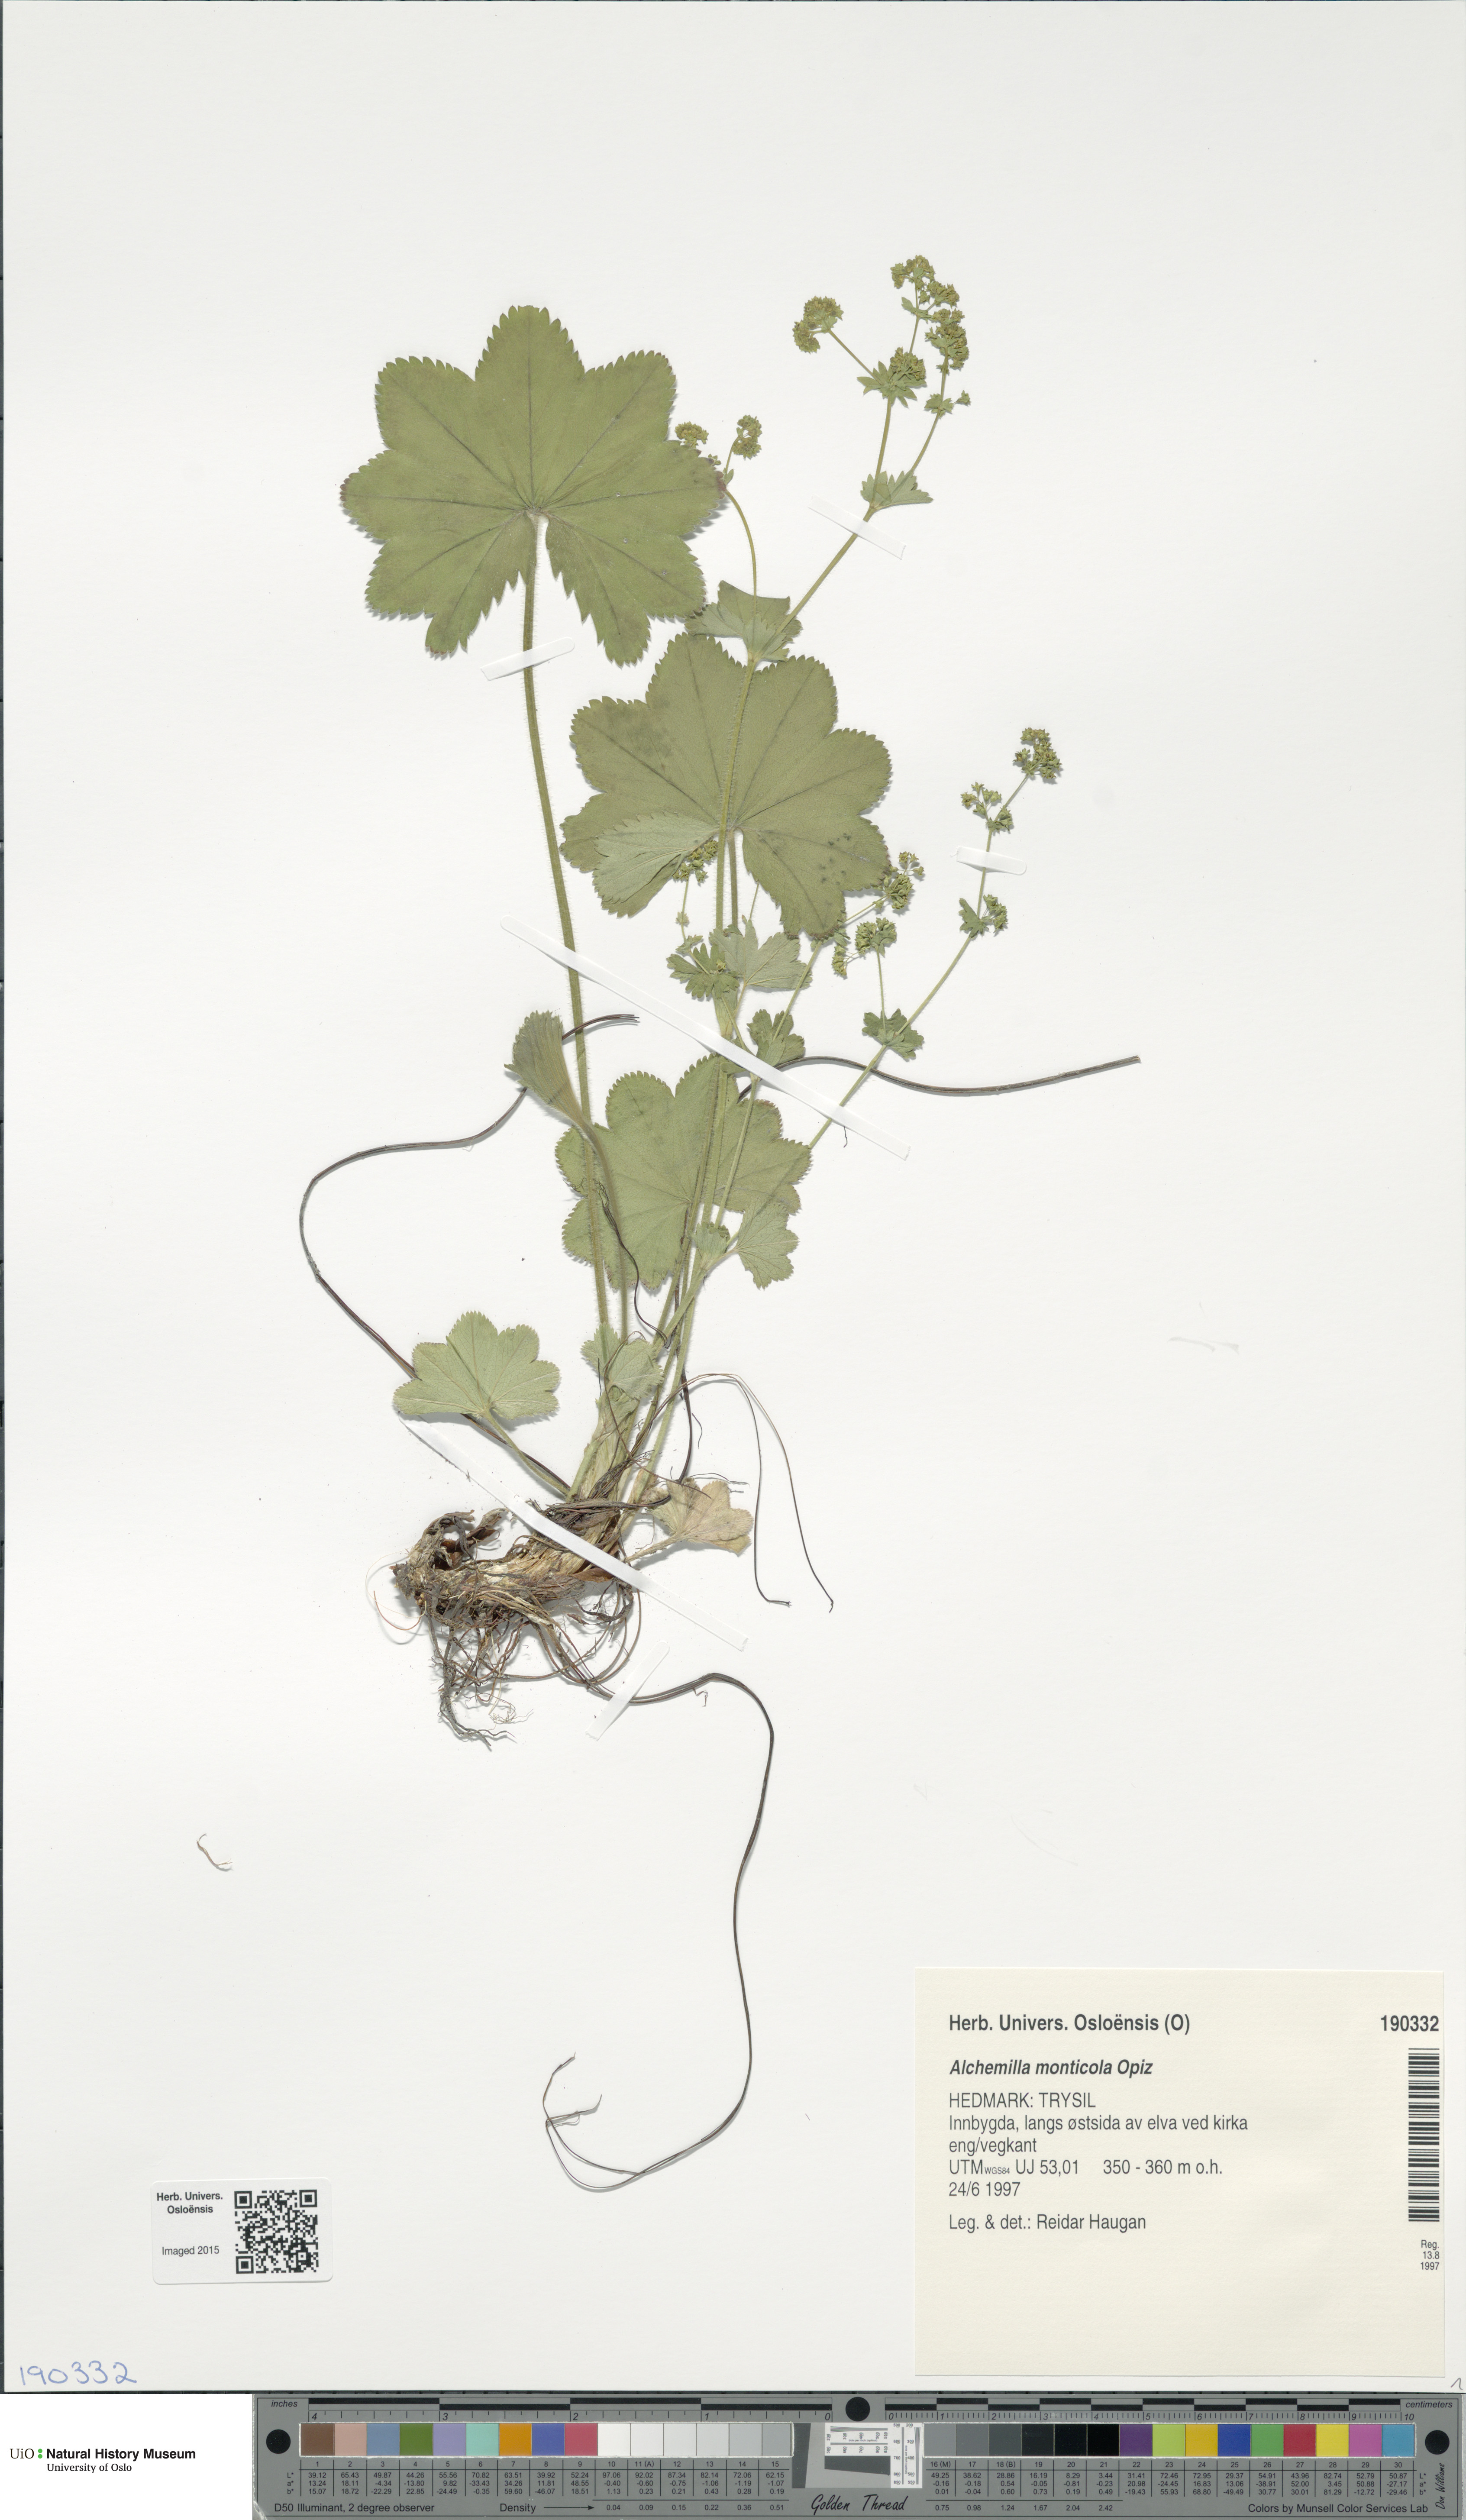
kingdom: Plantae
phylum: Tracheophyta
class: Magnoliopsida
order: Rosales
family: Rosaceae
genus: Alchemilla
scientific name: Alchemilla monticola
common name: Hairy lady's mantle
